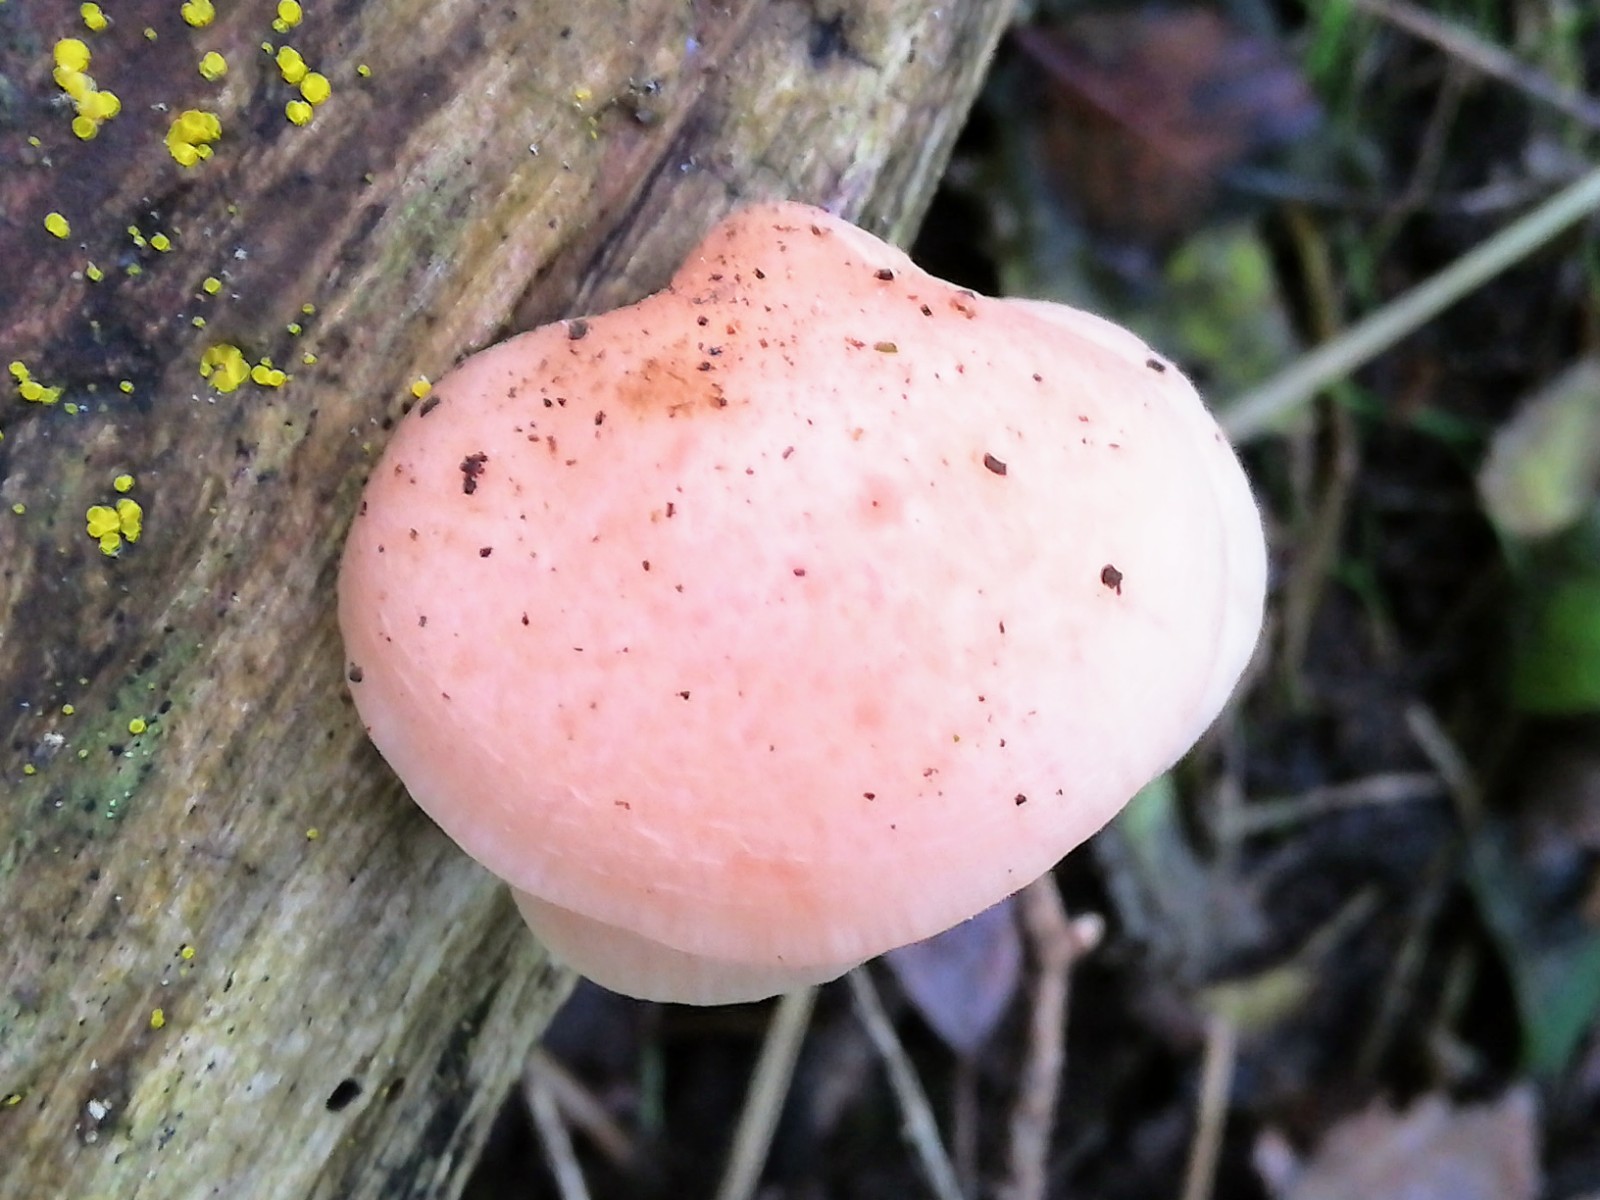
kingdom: Fungi
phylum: Basidiomycota
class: Agaricomycetes
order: Agaricales
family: Physalacriaceae
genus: Rhodotus
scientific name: Rhodotus palmatus
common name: ferskenhat
